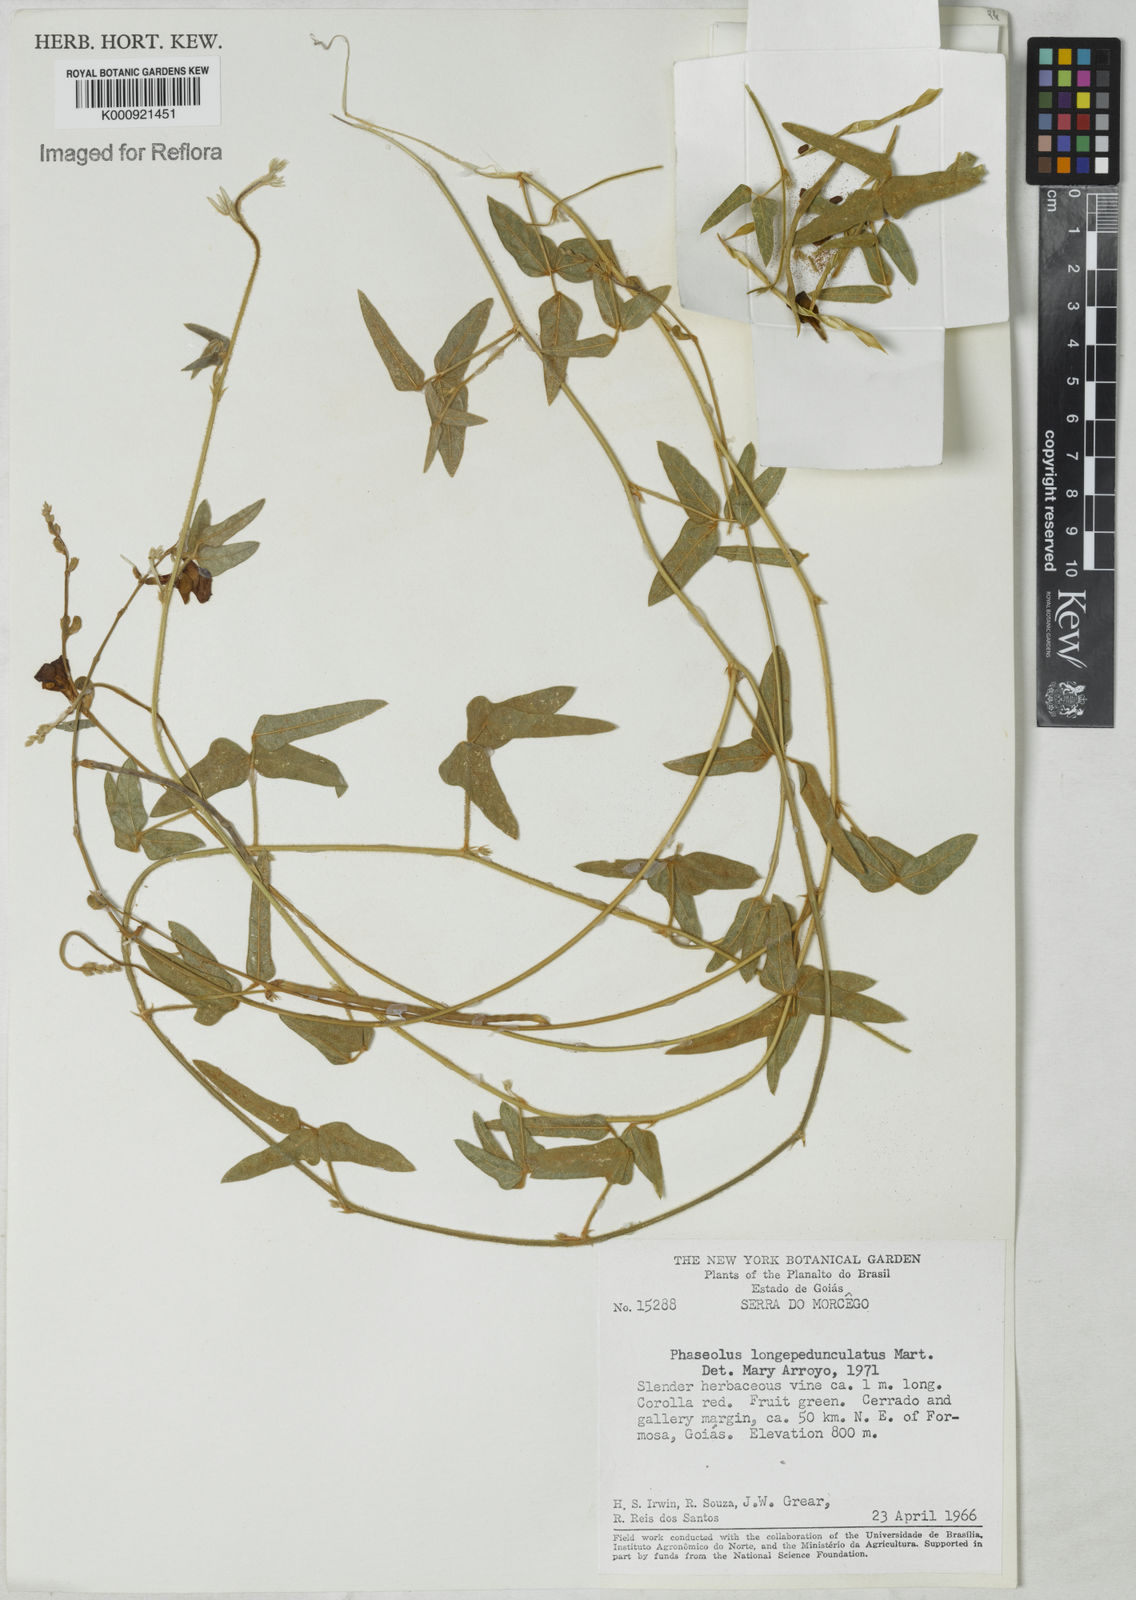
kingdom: Plantae
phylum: Tracheophyta
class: Magnoliopsida
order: Fabales
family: Fabaceae
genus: Macroptilium
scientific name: Macroptilium
